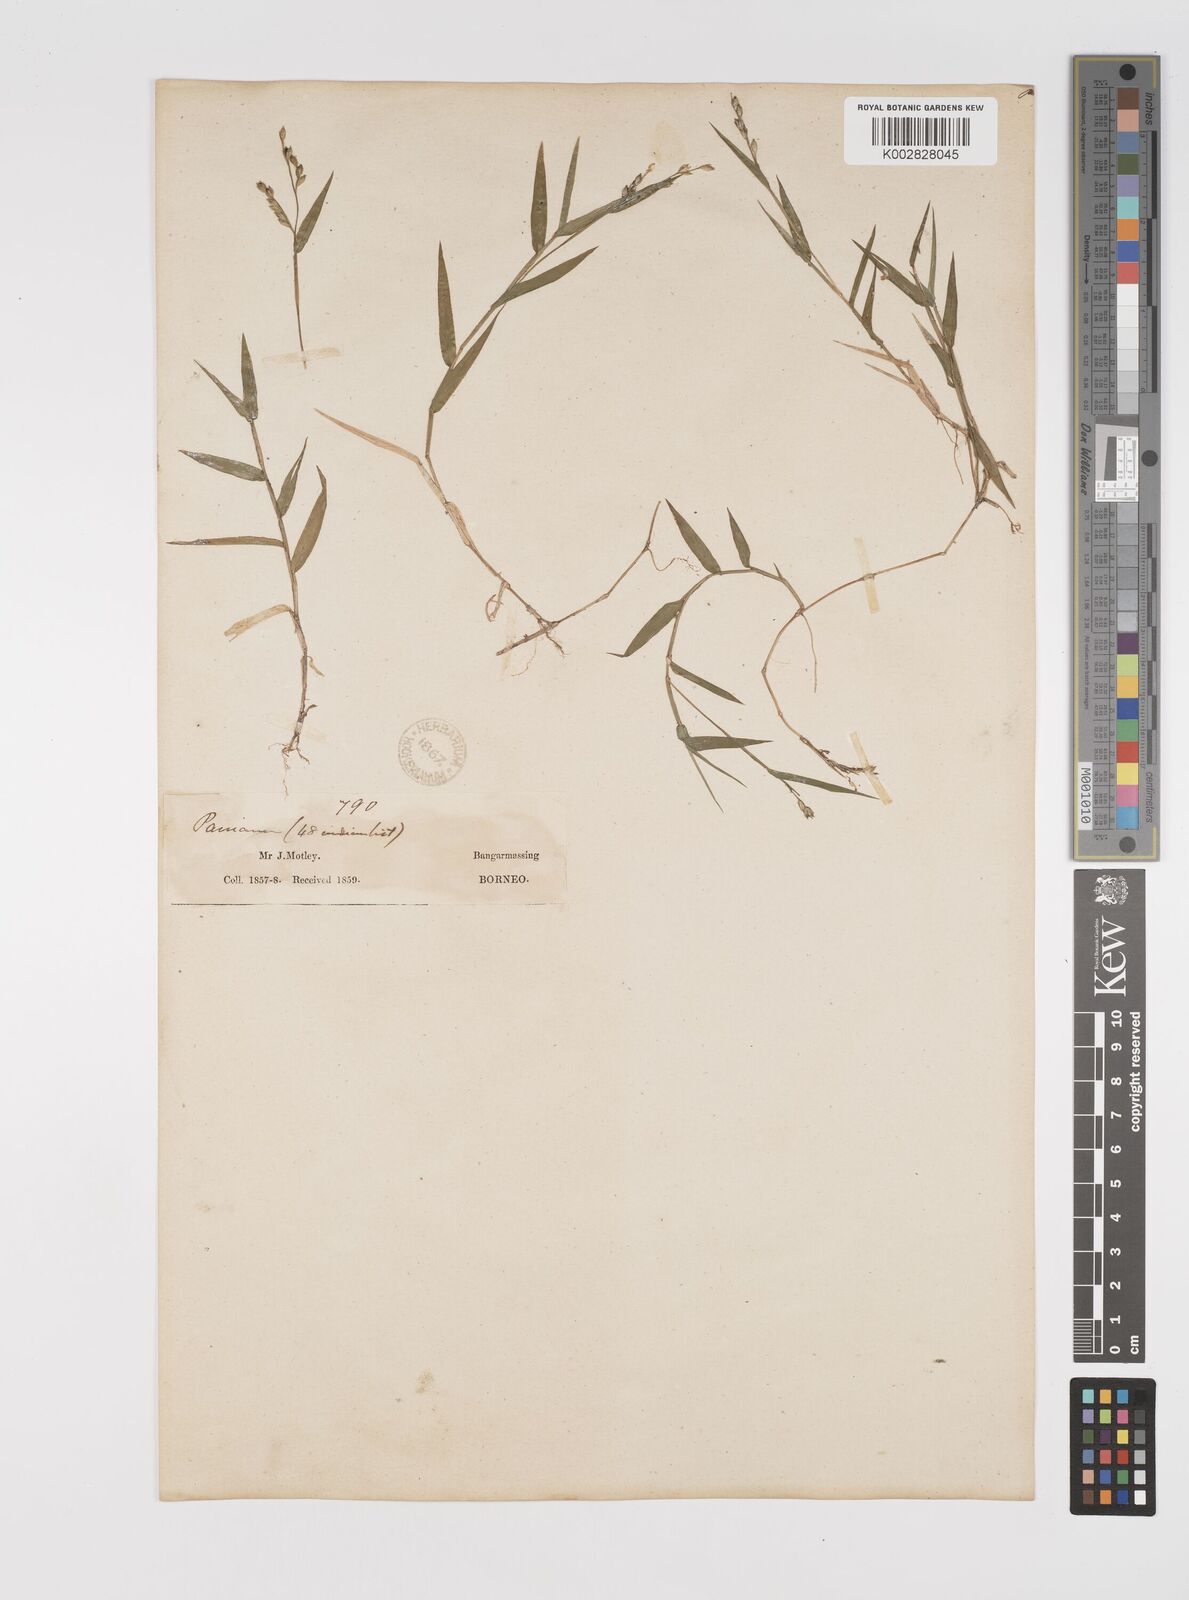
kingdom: Plantae
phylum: Tracheophyta
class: Liliopsida
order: Poales
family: Poaceae
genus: Acroceras
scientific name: Acroceras munroanum
